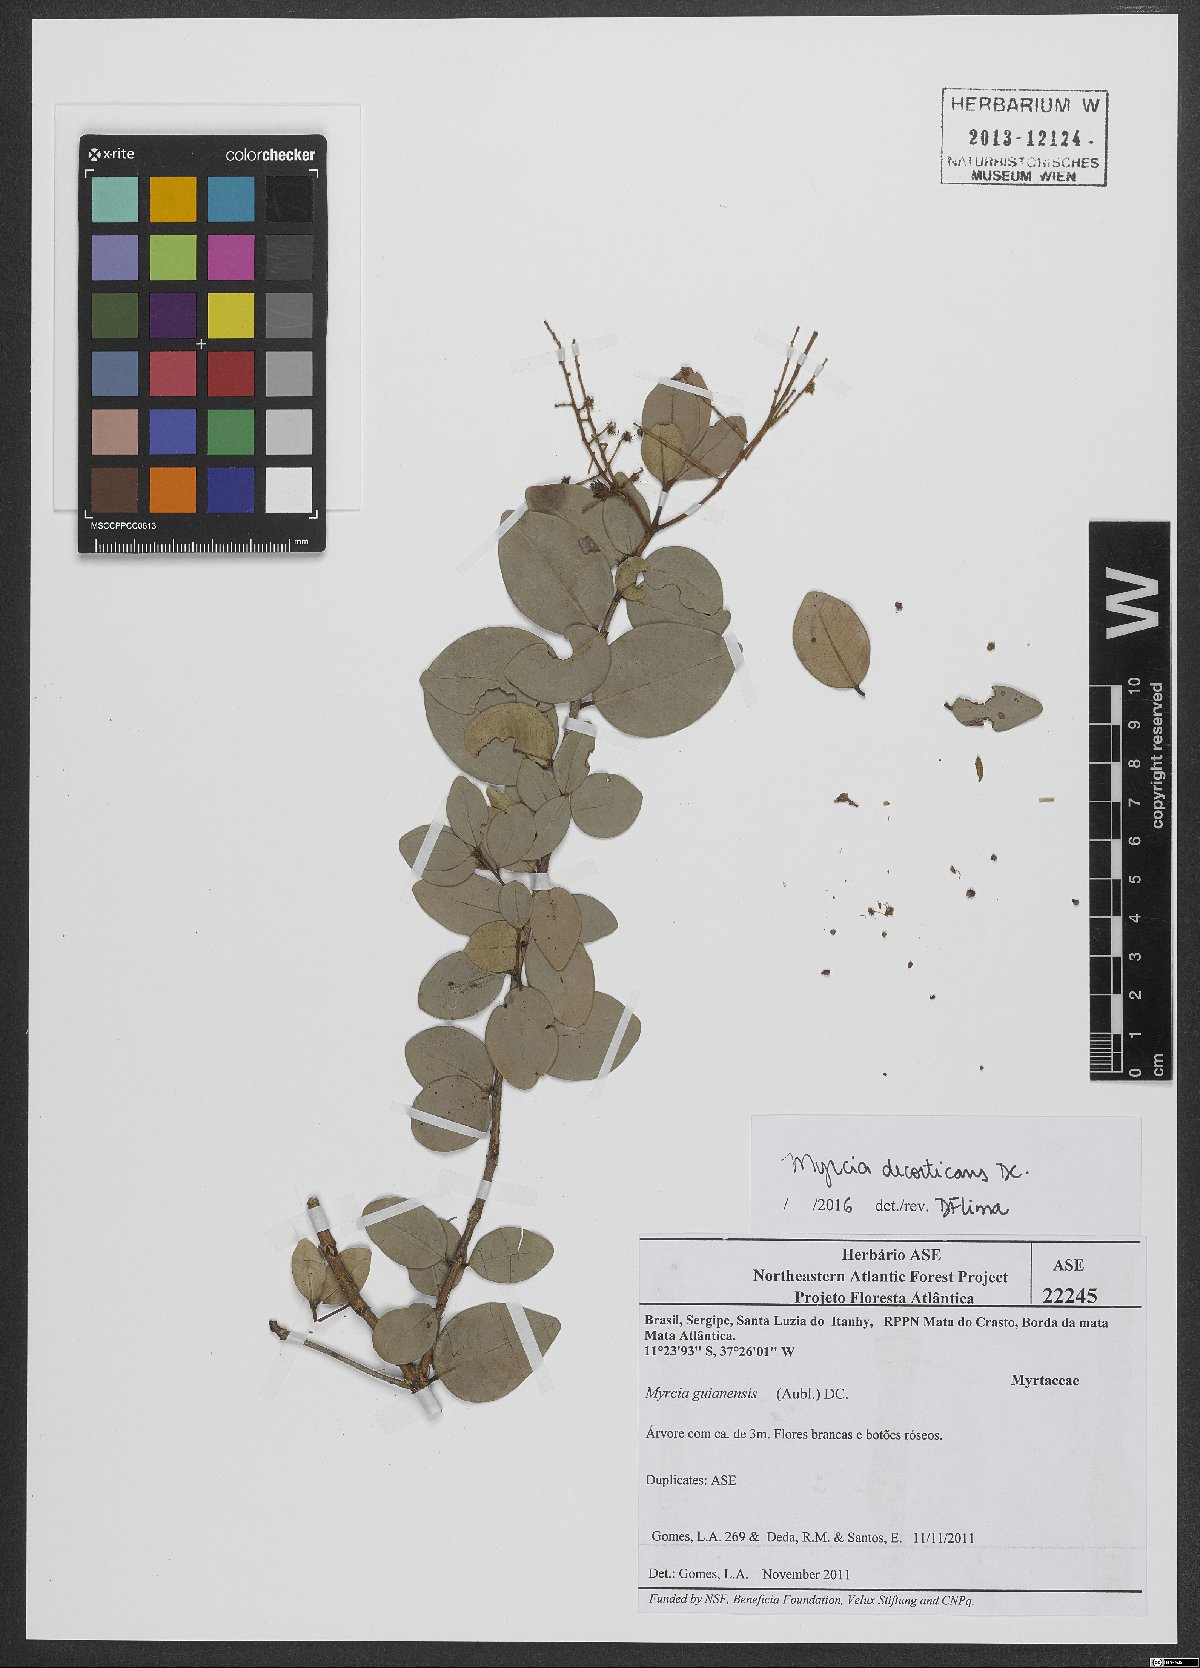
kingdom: Plantae
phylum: Tracheophyta
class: Magnoliopsida
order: Myrtales
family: Myrtaceae
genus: Myrcia
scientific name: Myrcia decorticans
